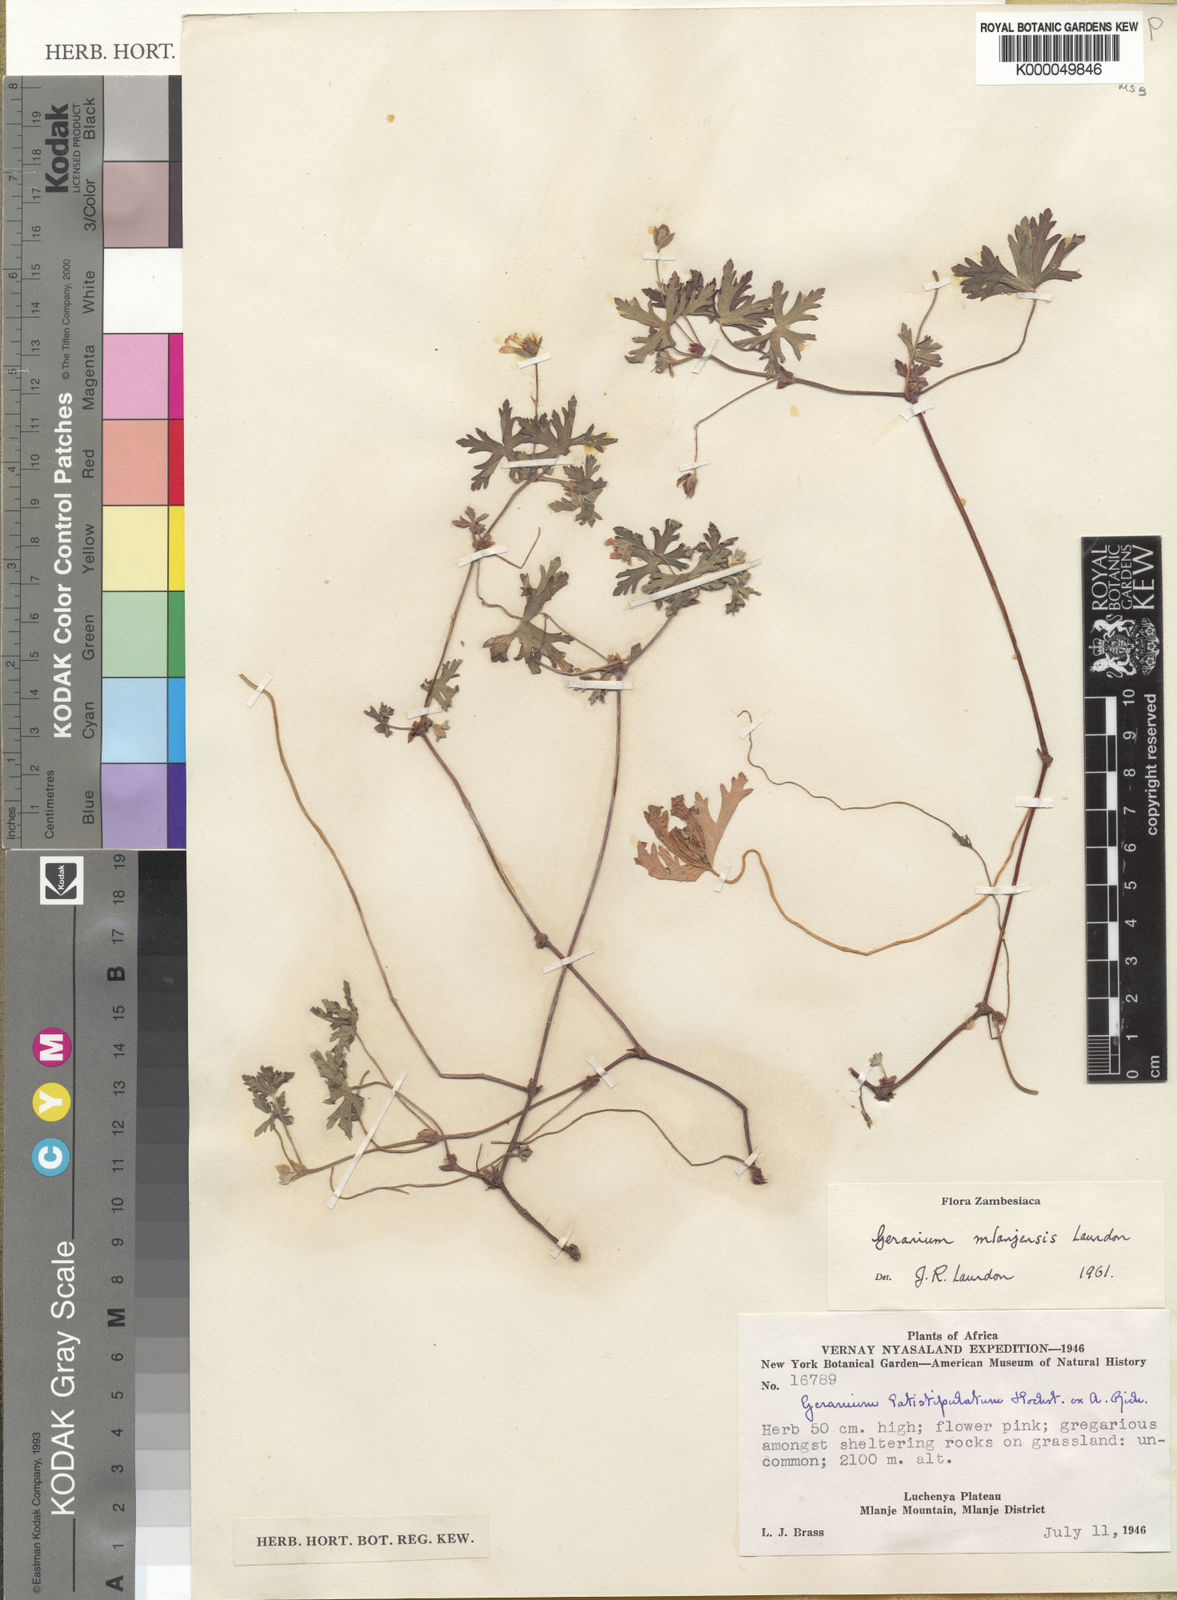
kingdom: Plantae
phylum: Tracheophyta
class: Magnoliopsida
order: Geraniales
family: Geraniaceae
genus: Geranium
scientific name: Geranium mlanjense
